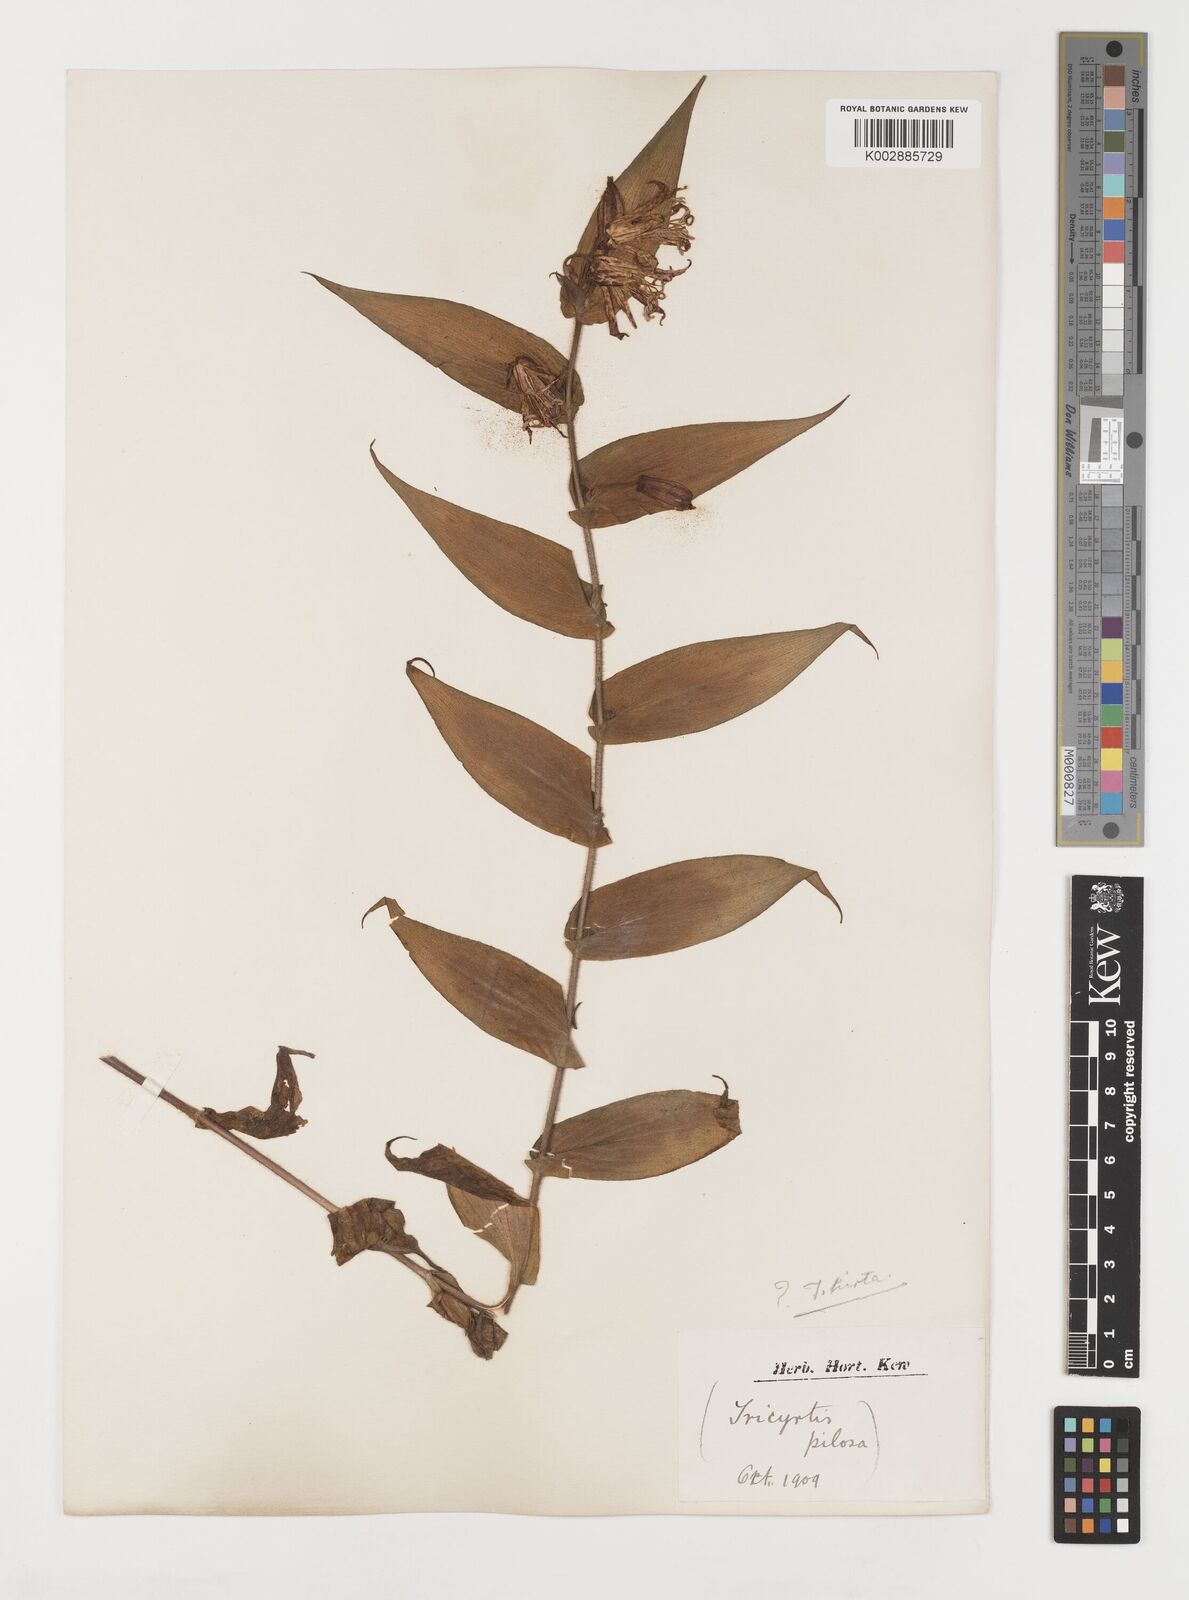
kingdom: Plantae
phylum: Tracheophyta
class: Liliopsida
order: Liliales
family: Liliaceae
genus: Tricyrtis
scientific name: Tricyrtis maculata
